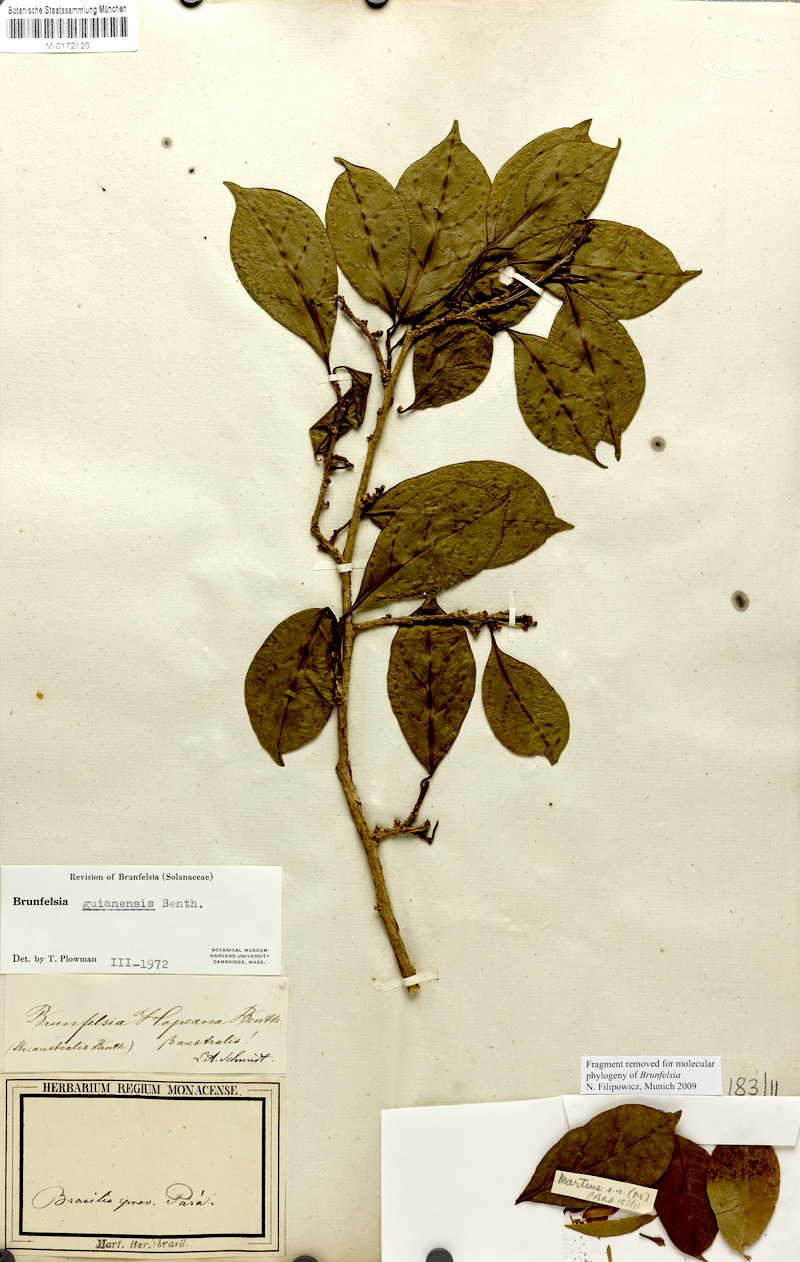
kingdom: Plantae
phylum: Tracheophyta
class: Magnoliopsida
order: Solanales
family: Solanaceae
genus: Brunfelsia
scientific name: Brunfelsia guianensis
